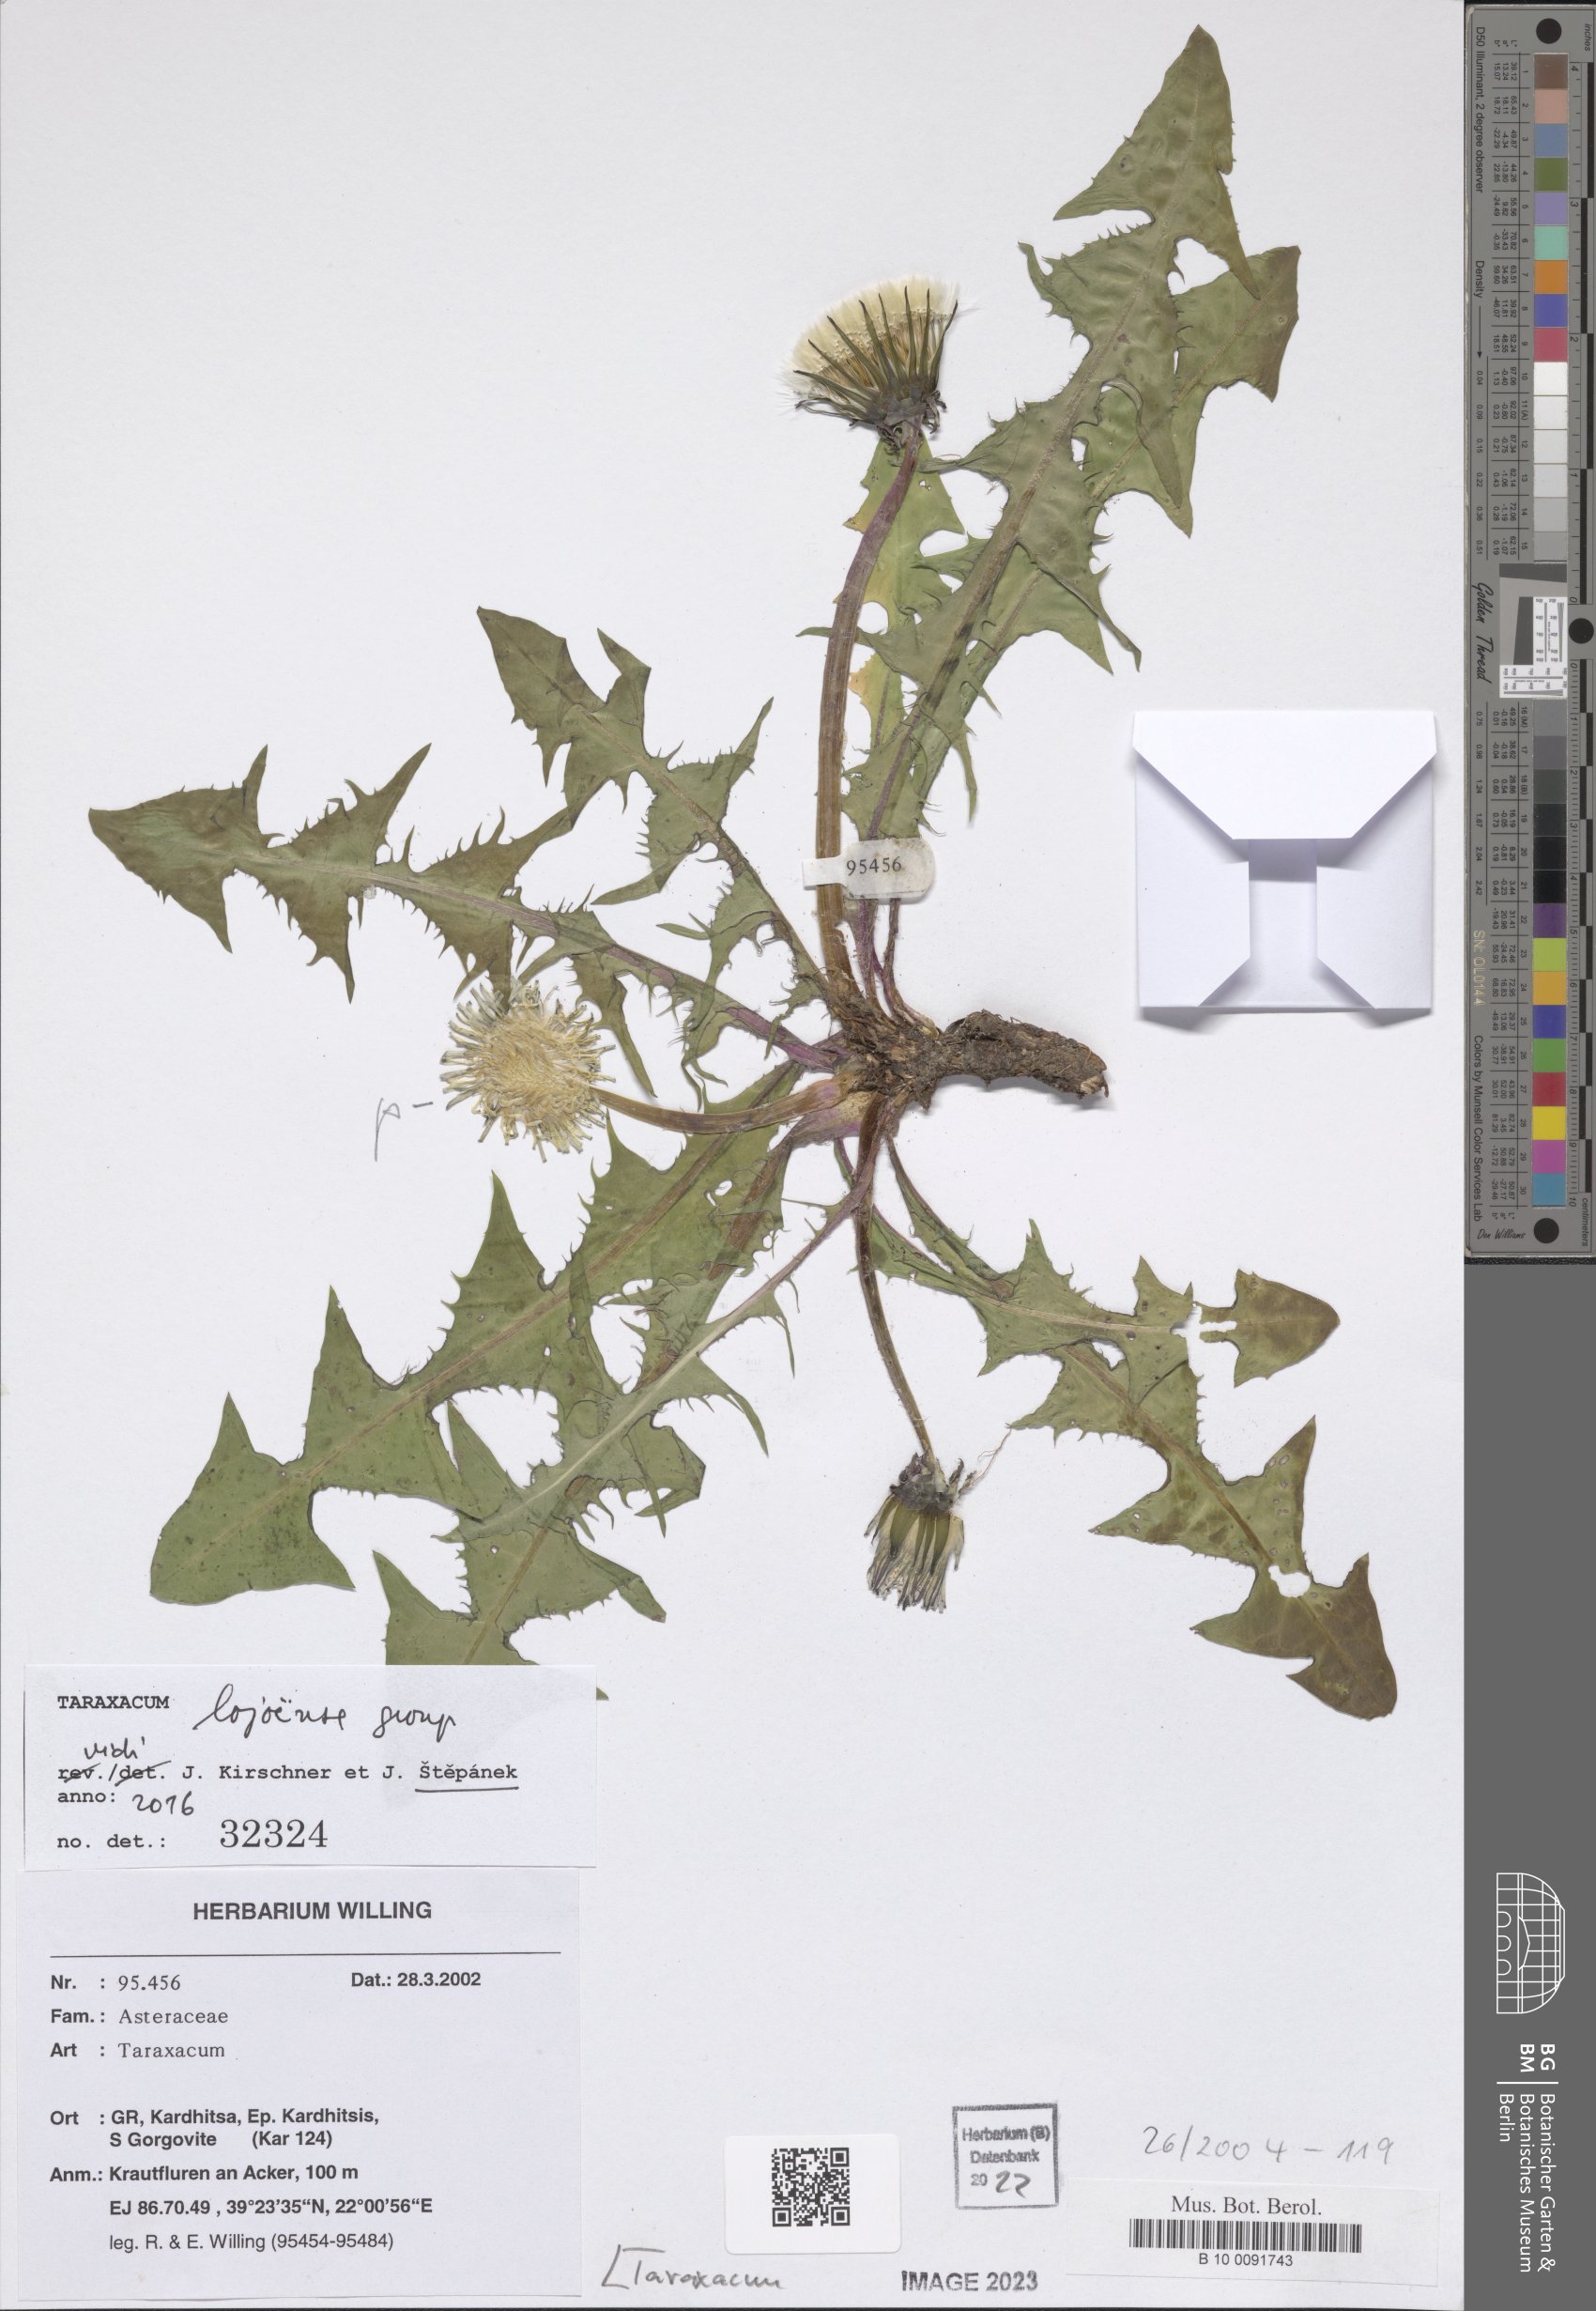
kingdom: Plantae
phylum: Tracheophyta
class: Magnoliopsida
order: Asterales
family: Asteraceae
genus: Taraxacum
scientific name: Taraxacum
